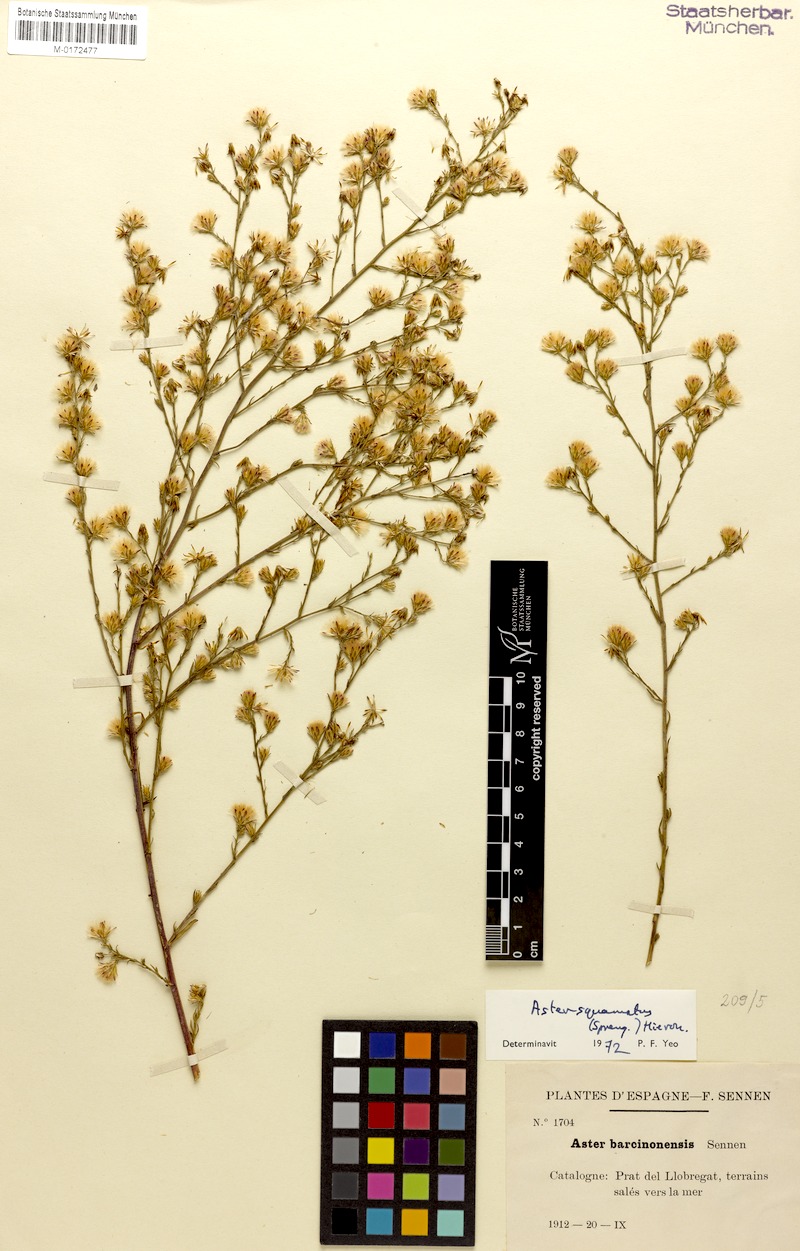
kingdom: Plantae
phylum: Tracheophyta
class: Magnoliopsida
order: Asterales
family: Asteraceae
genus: Symphyotrichum
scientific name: Symphyotrichum squamatum
